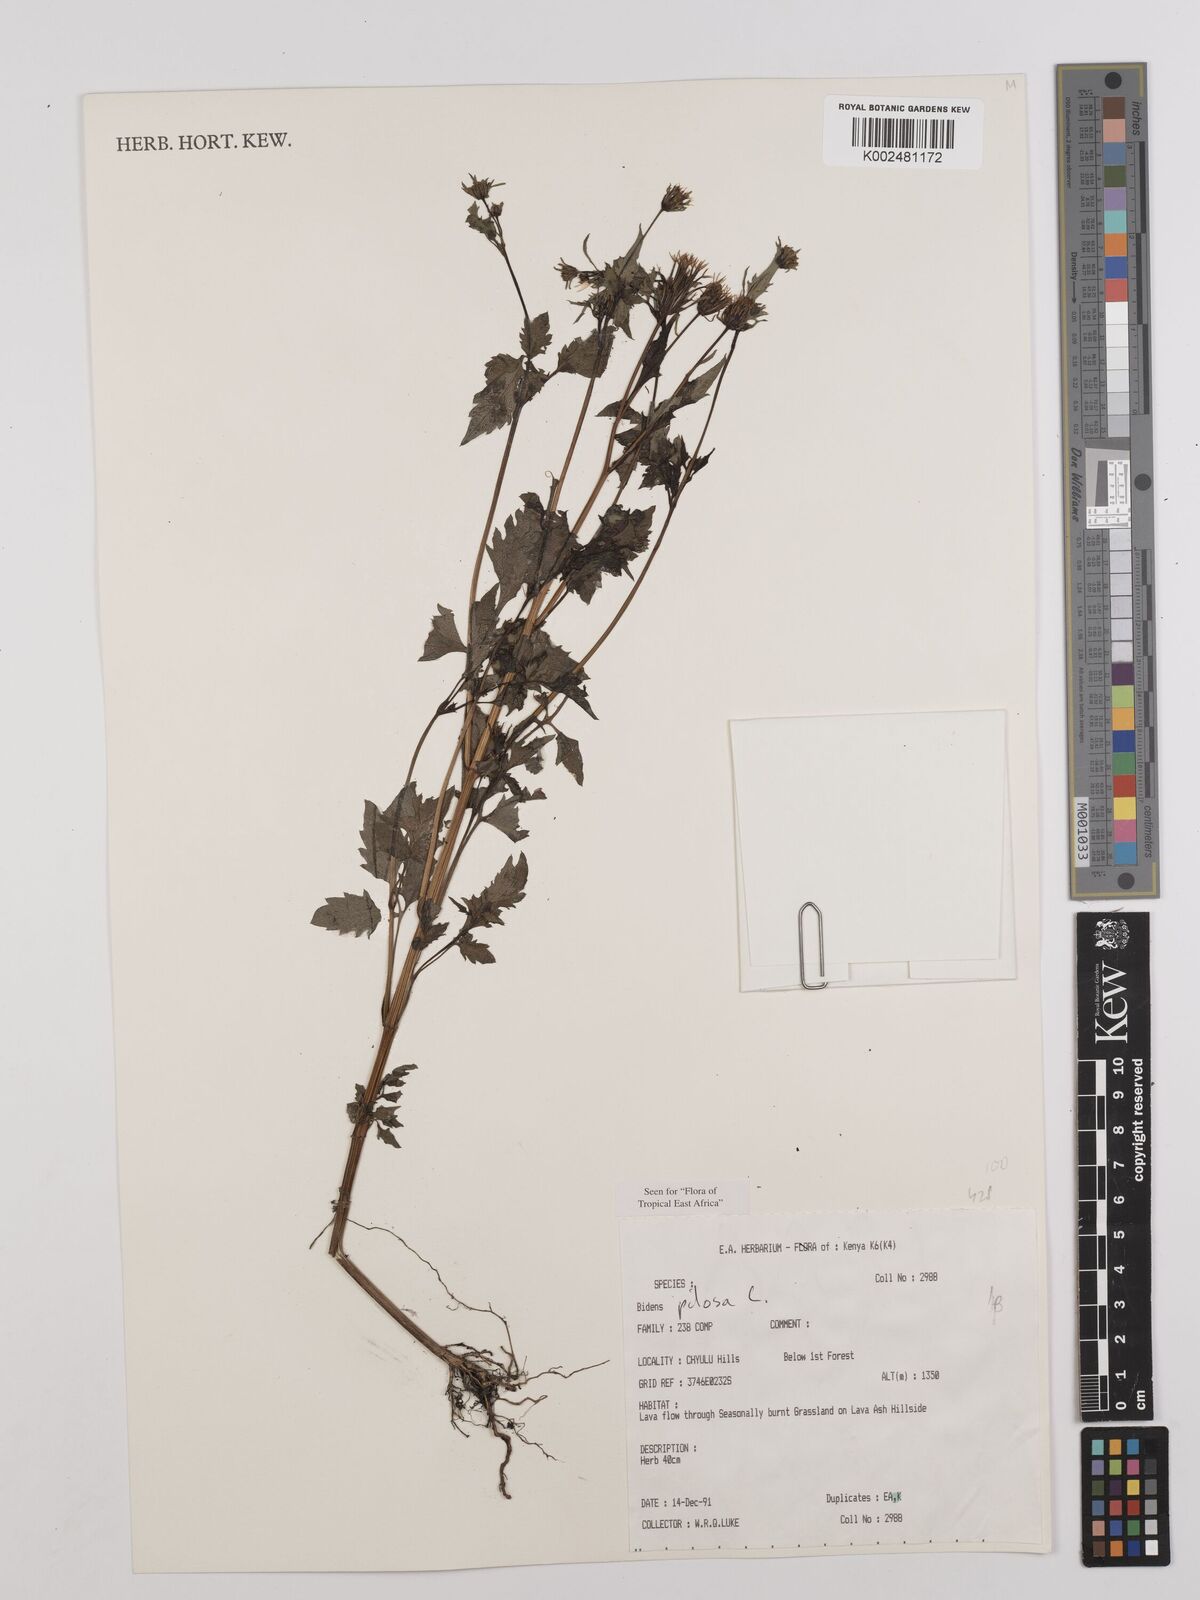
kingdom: Plantae
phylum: Tracheophyta
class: Magnoliopsida
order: Asterales
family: Asteraceae
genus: Bidens
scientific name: Bidens pilosa
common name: Black-jack
